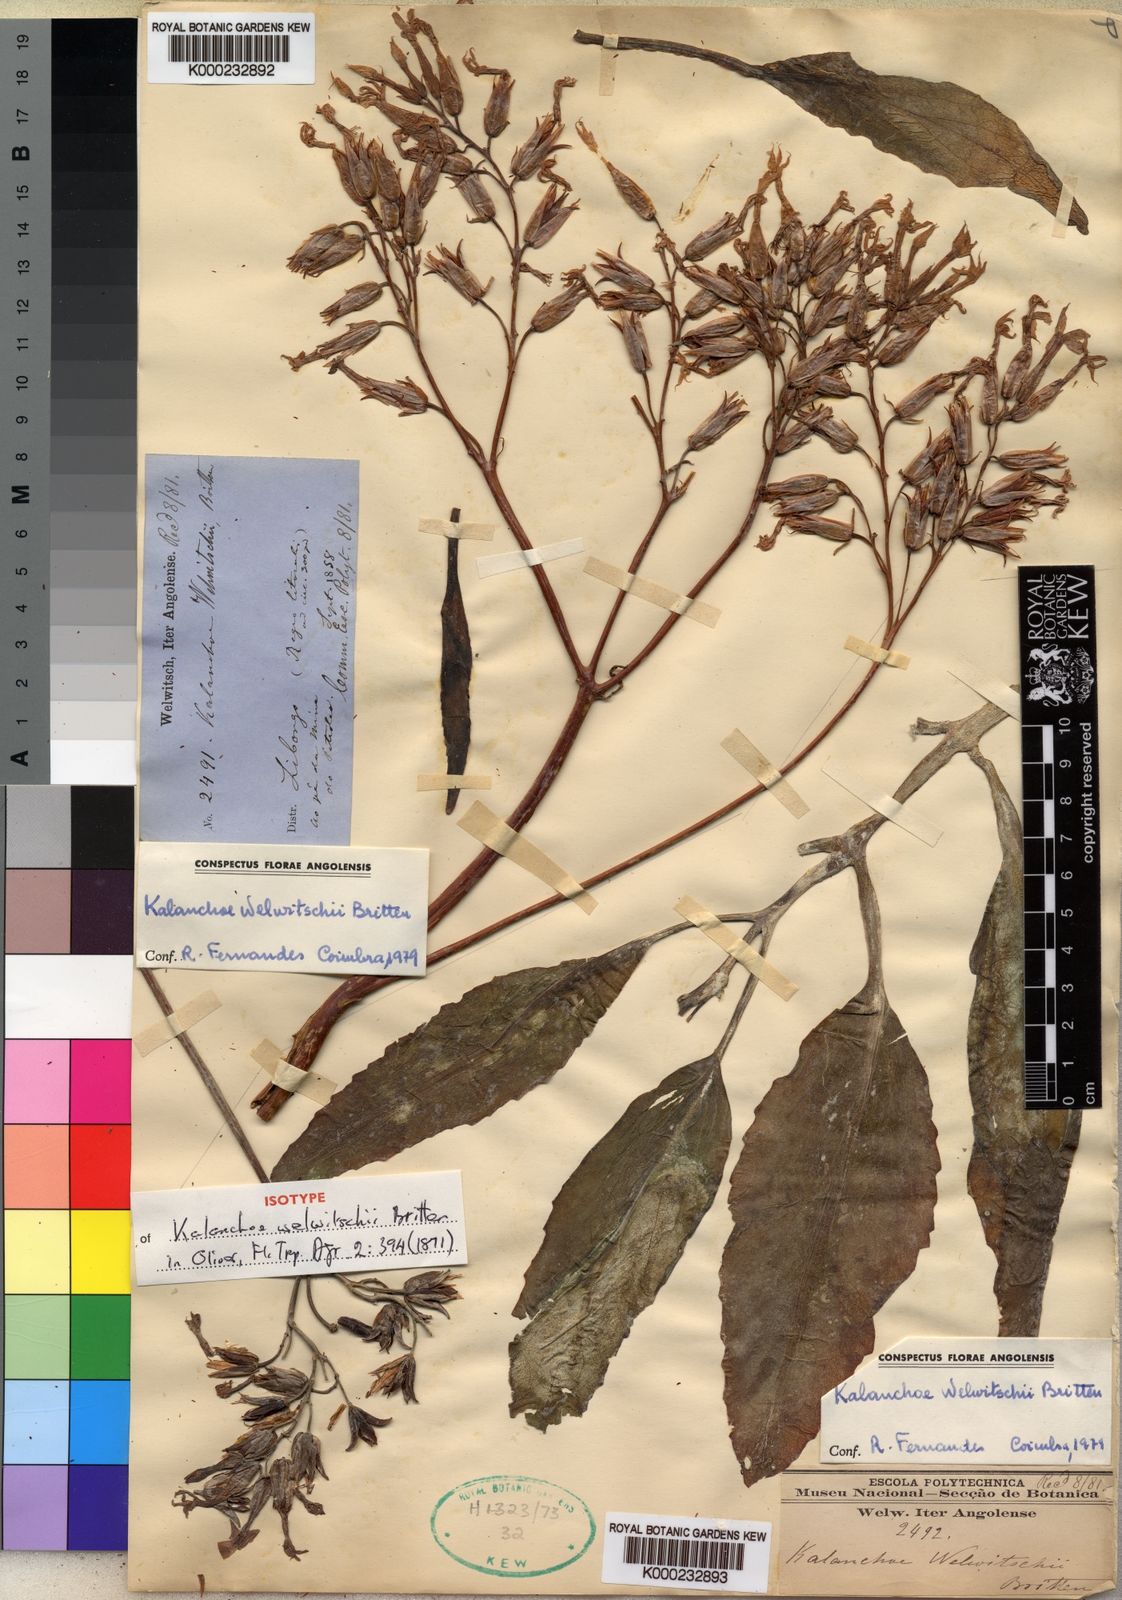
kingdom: Plantae
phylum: Tracheophyta
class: Magnoliopsida
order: Saxifragales
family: Crassulaceae
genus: Kalanchoe
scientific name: Kalanchoe welwitschii
